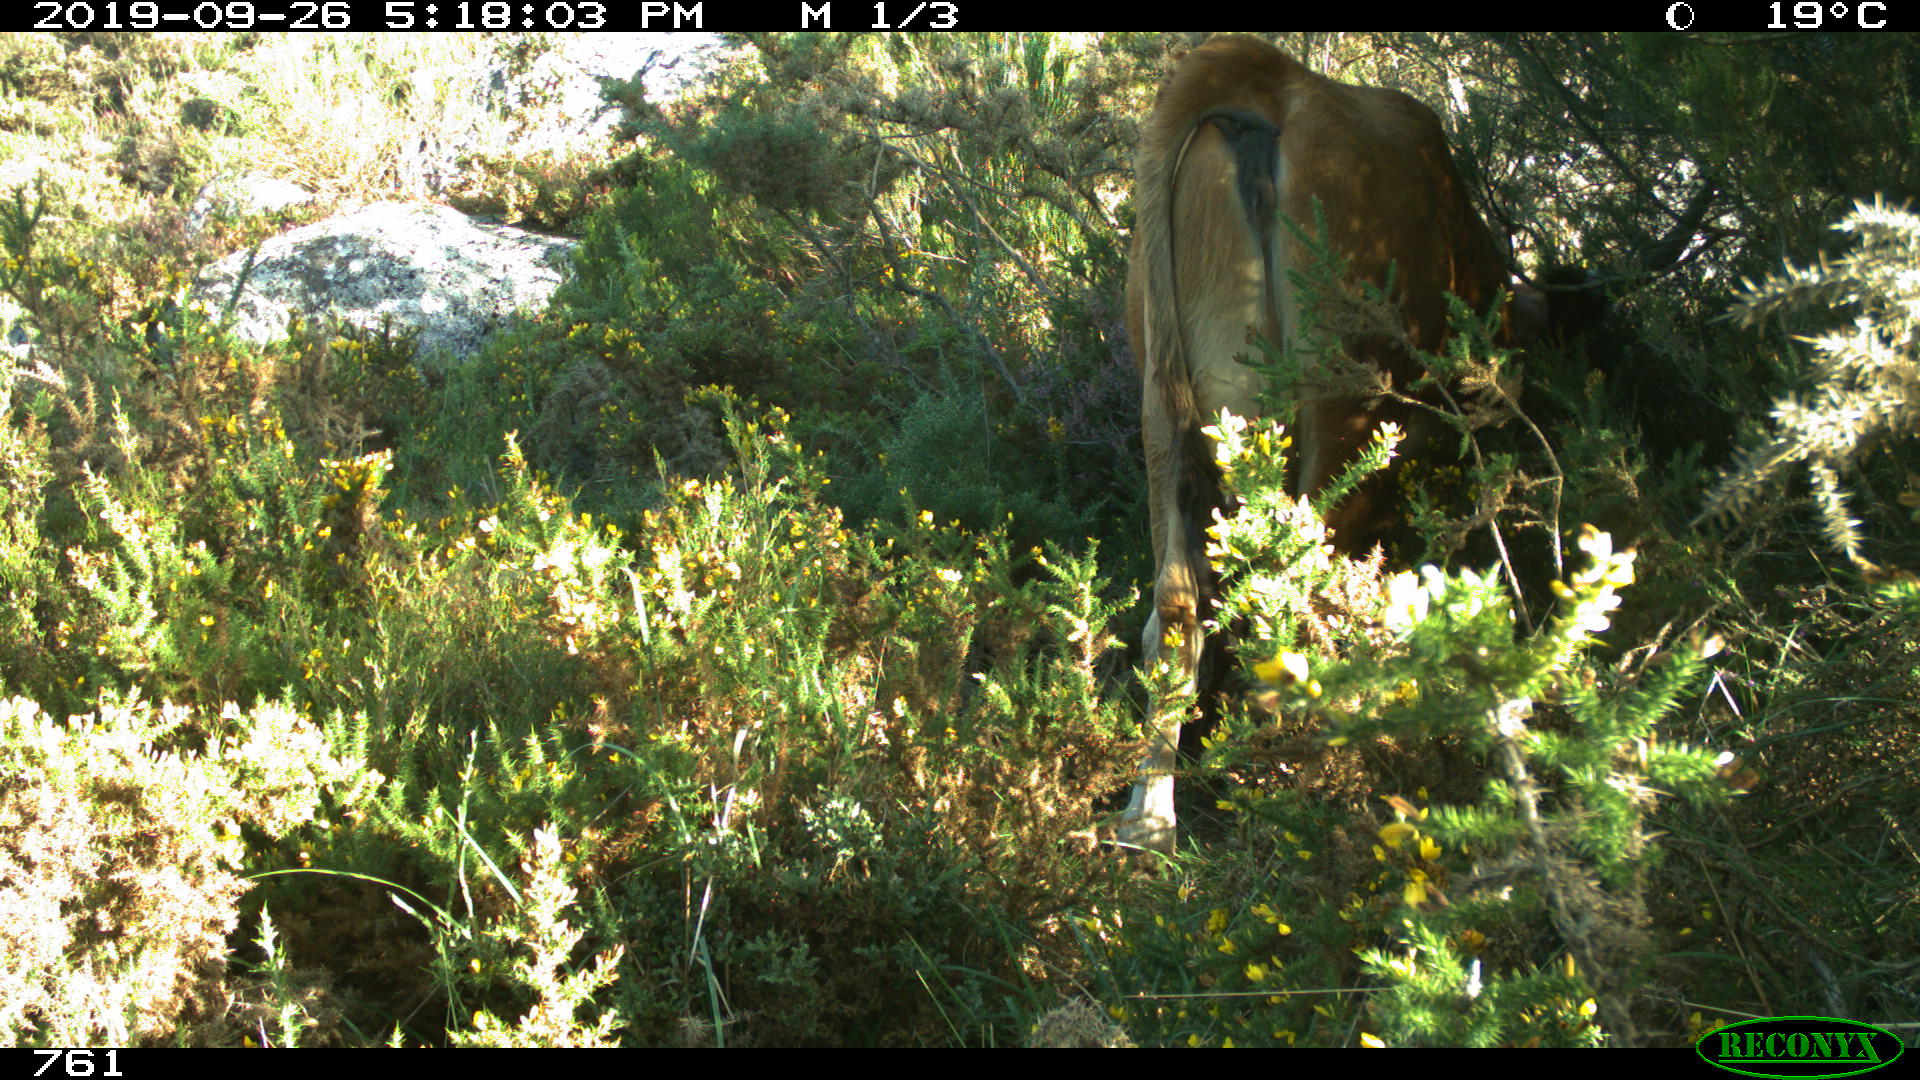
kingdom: Animalia
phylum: Chordata
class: Mammalia
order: Artiodactyla
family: Bovidae
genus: Bos
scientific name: Bos taurus
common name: Domesticated cattle
